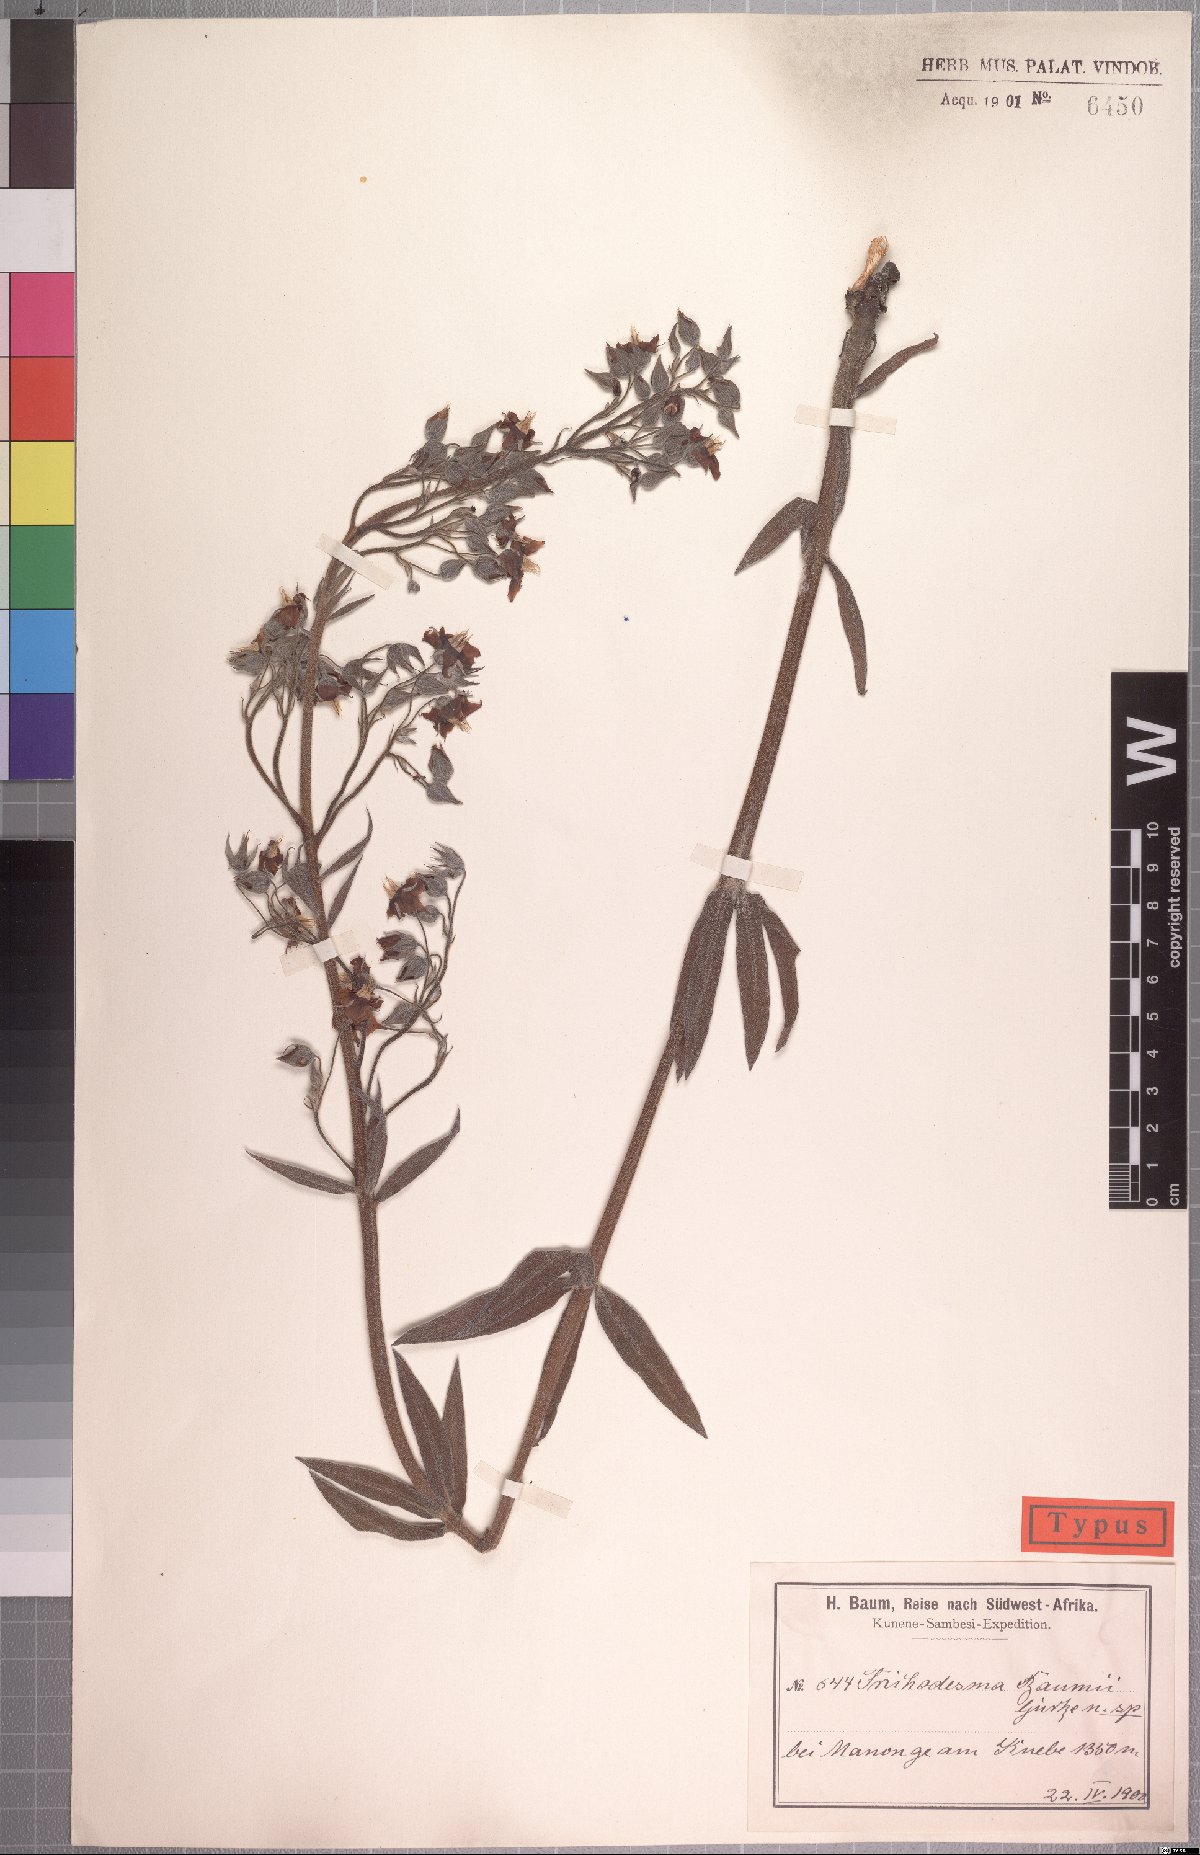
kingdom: Plantae
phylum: Tracheophyta
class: Magnoliopsida
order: Boraginales
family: Boraginaceae
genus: Trichodesma
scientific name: Trichodesma baumii
